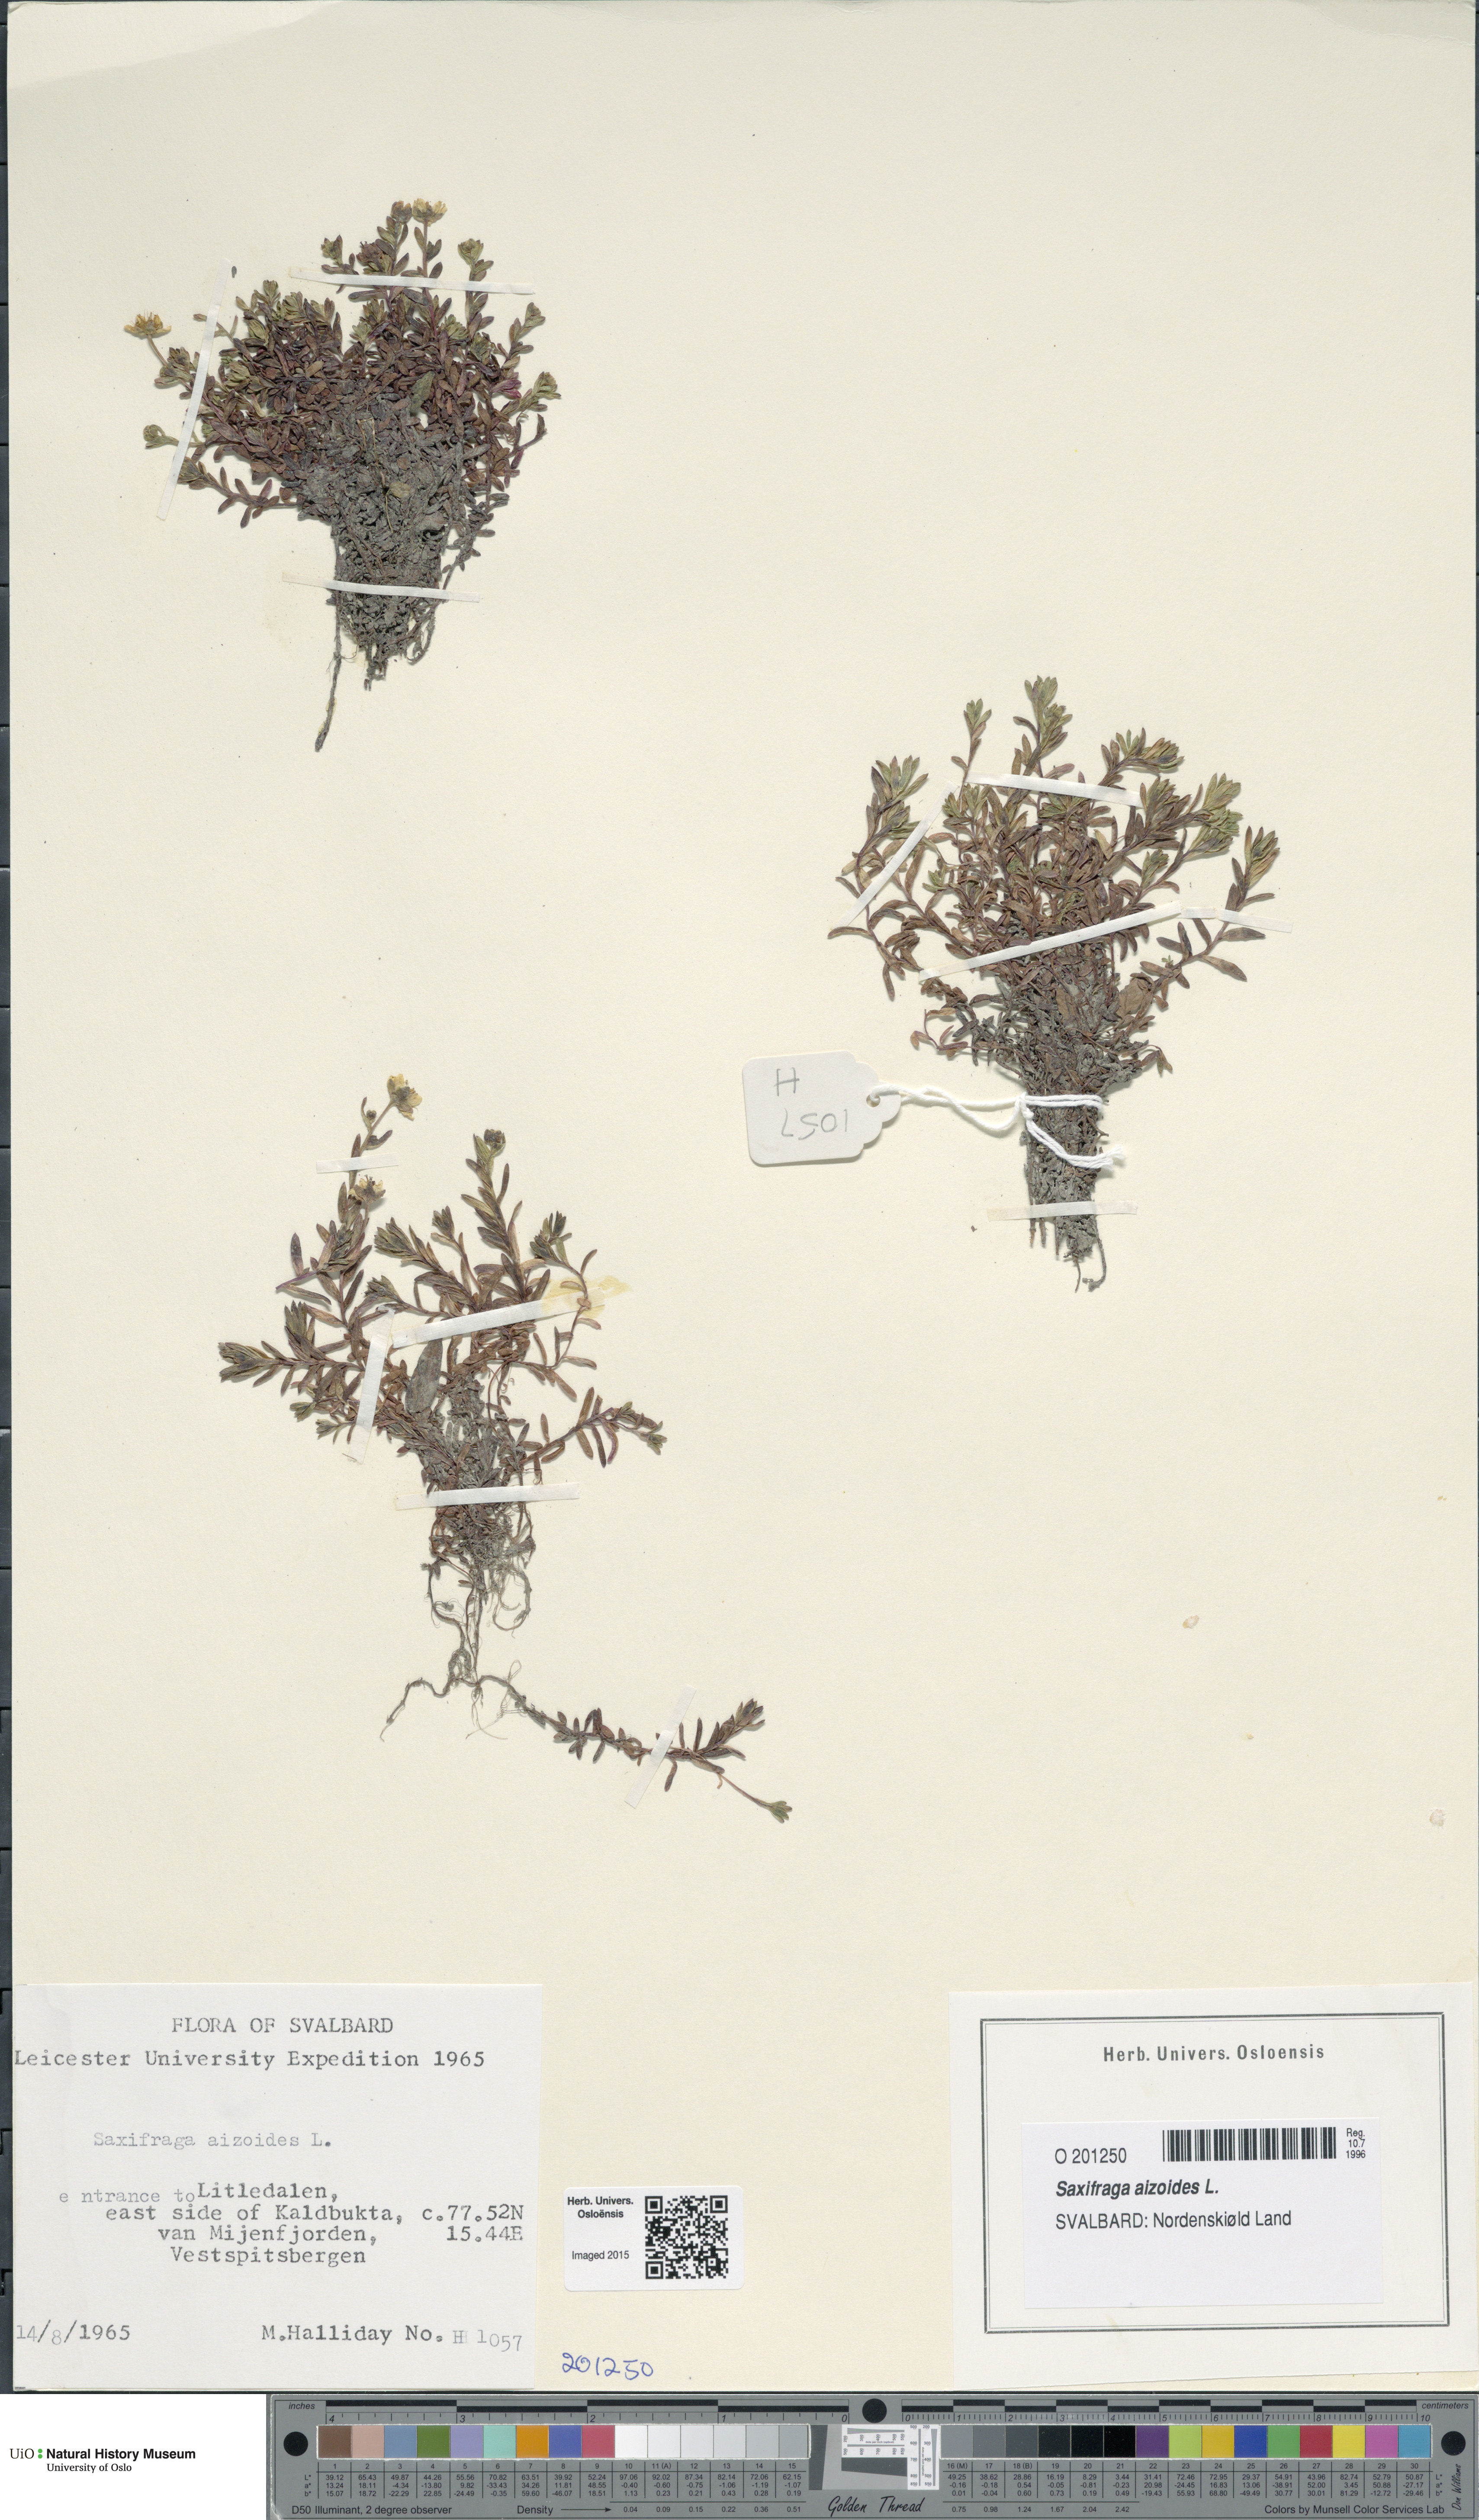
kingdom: Plantae
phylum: Tracheophyta
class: Magnoliopsida
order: Saxifragales
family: Saxifragaceae
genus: Saxifraga
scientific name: Saxifraga aizoides
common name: Yellow mountain saxifrage
